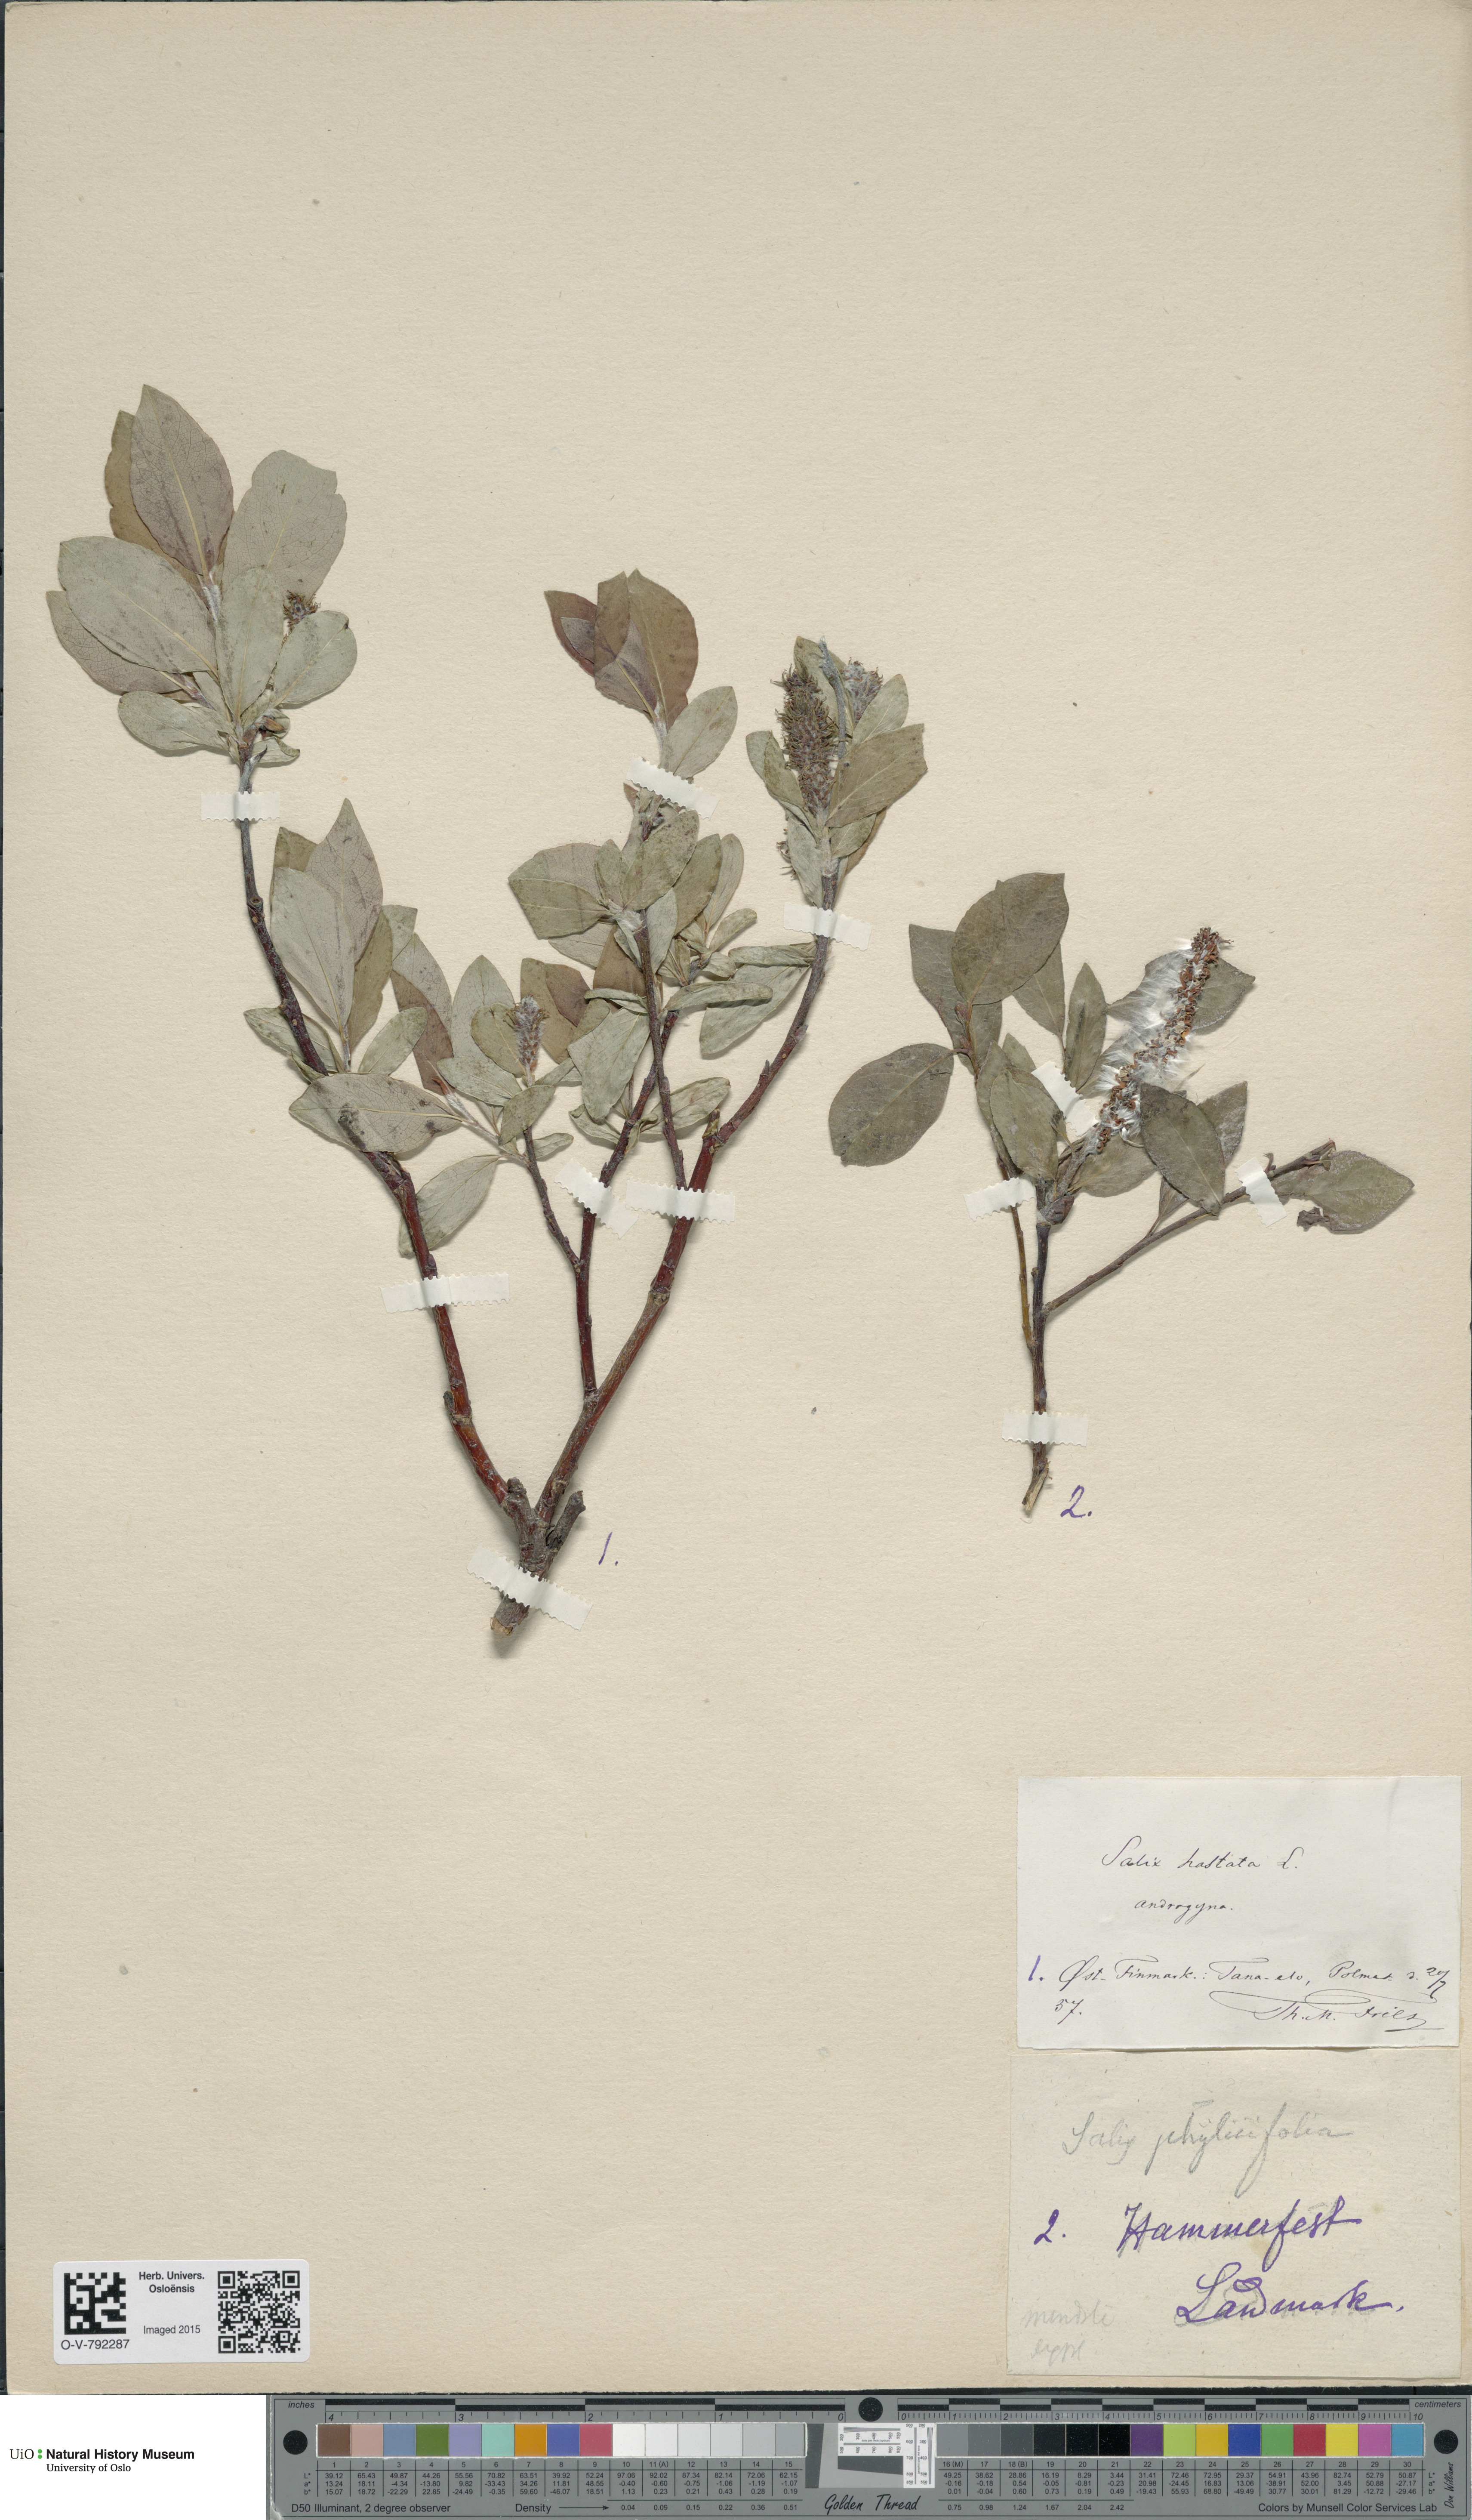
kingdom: Plantae
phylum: Tracheophyta
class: Magnoliopsida
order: Malpighiales
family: Salicaceae
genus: Salix
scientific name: Salix hastata
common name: Halberd willow
